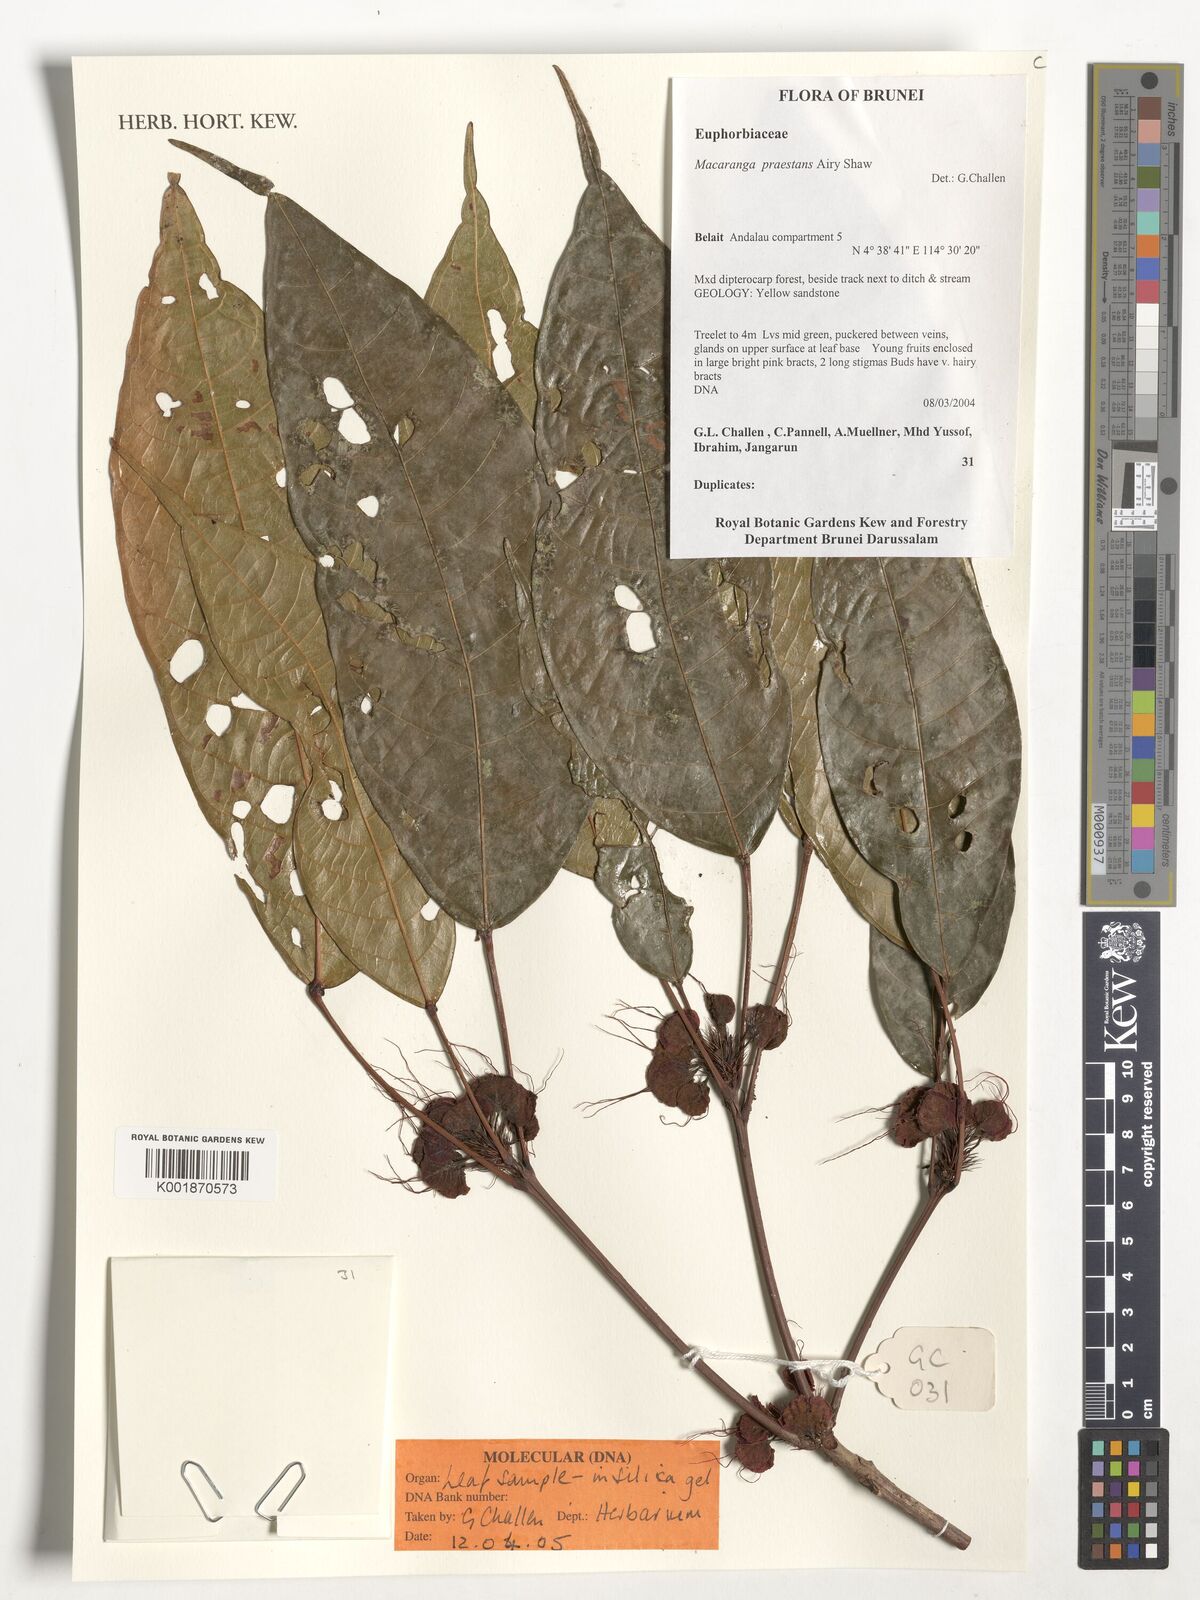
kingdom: Plantae
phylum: Tracheophyta
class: Magnoliopsida
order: Malpighiales
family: Euphorbiaceae
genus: Macaranga
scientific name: Macaranga praestans
